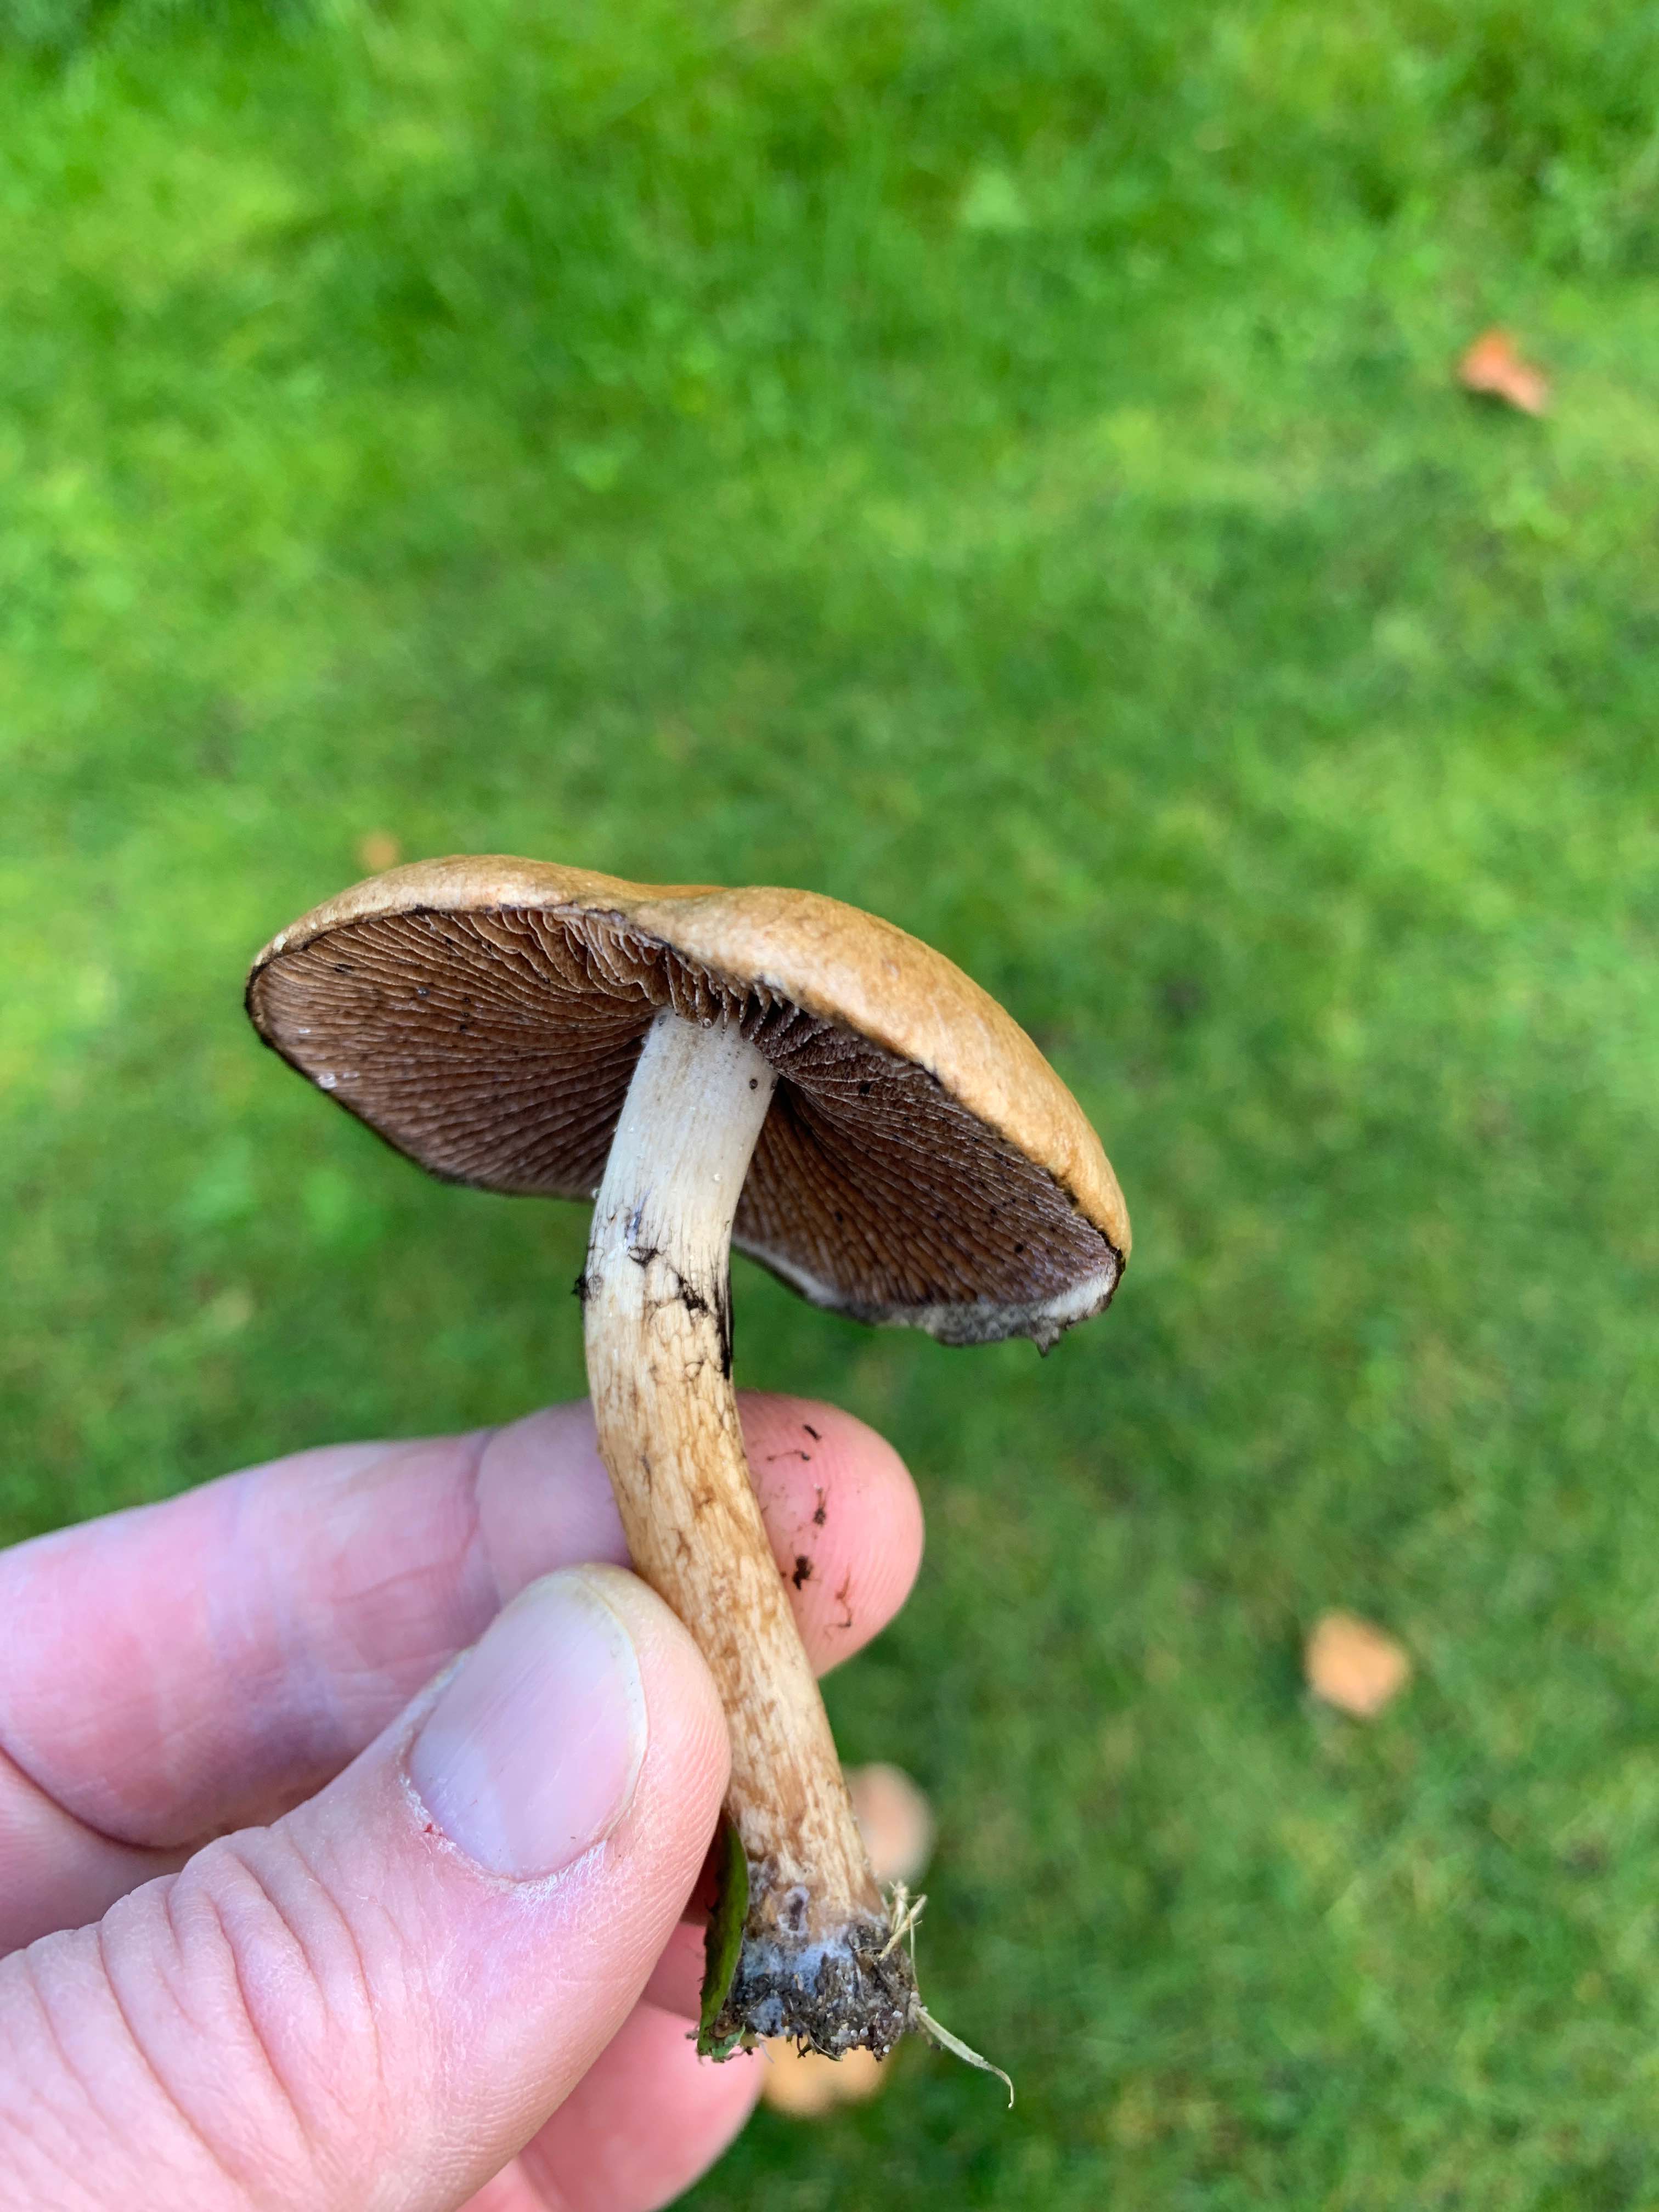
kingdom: Fungi
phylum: Basidiomycota
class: Agaricomycetes
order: Agaricales
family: Psathyrellaceae
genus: Lacrymaria
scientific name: Lacrymaria lacrymabunda
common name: grædende mørkhat
